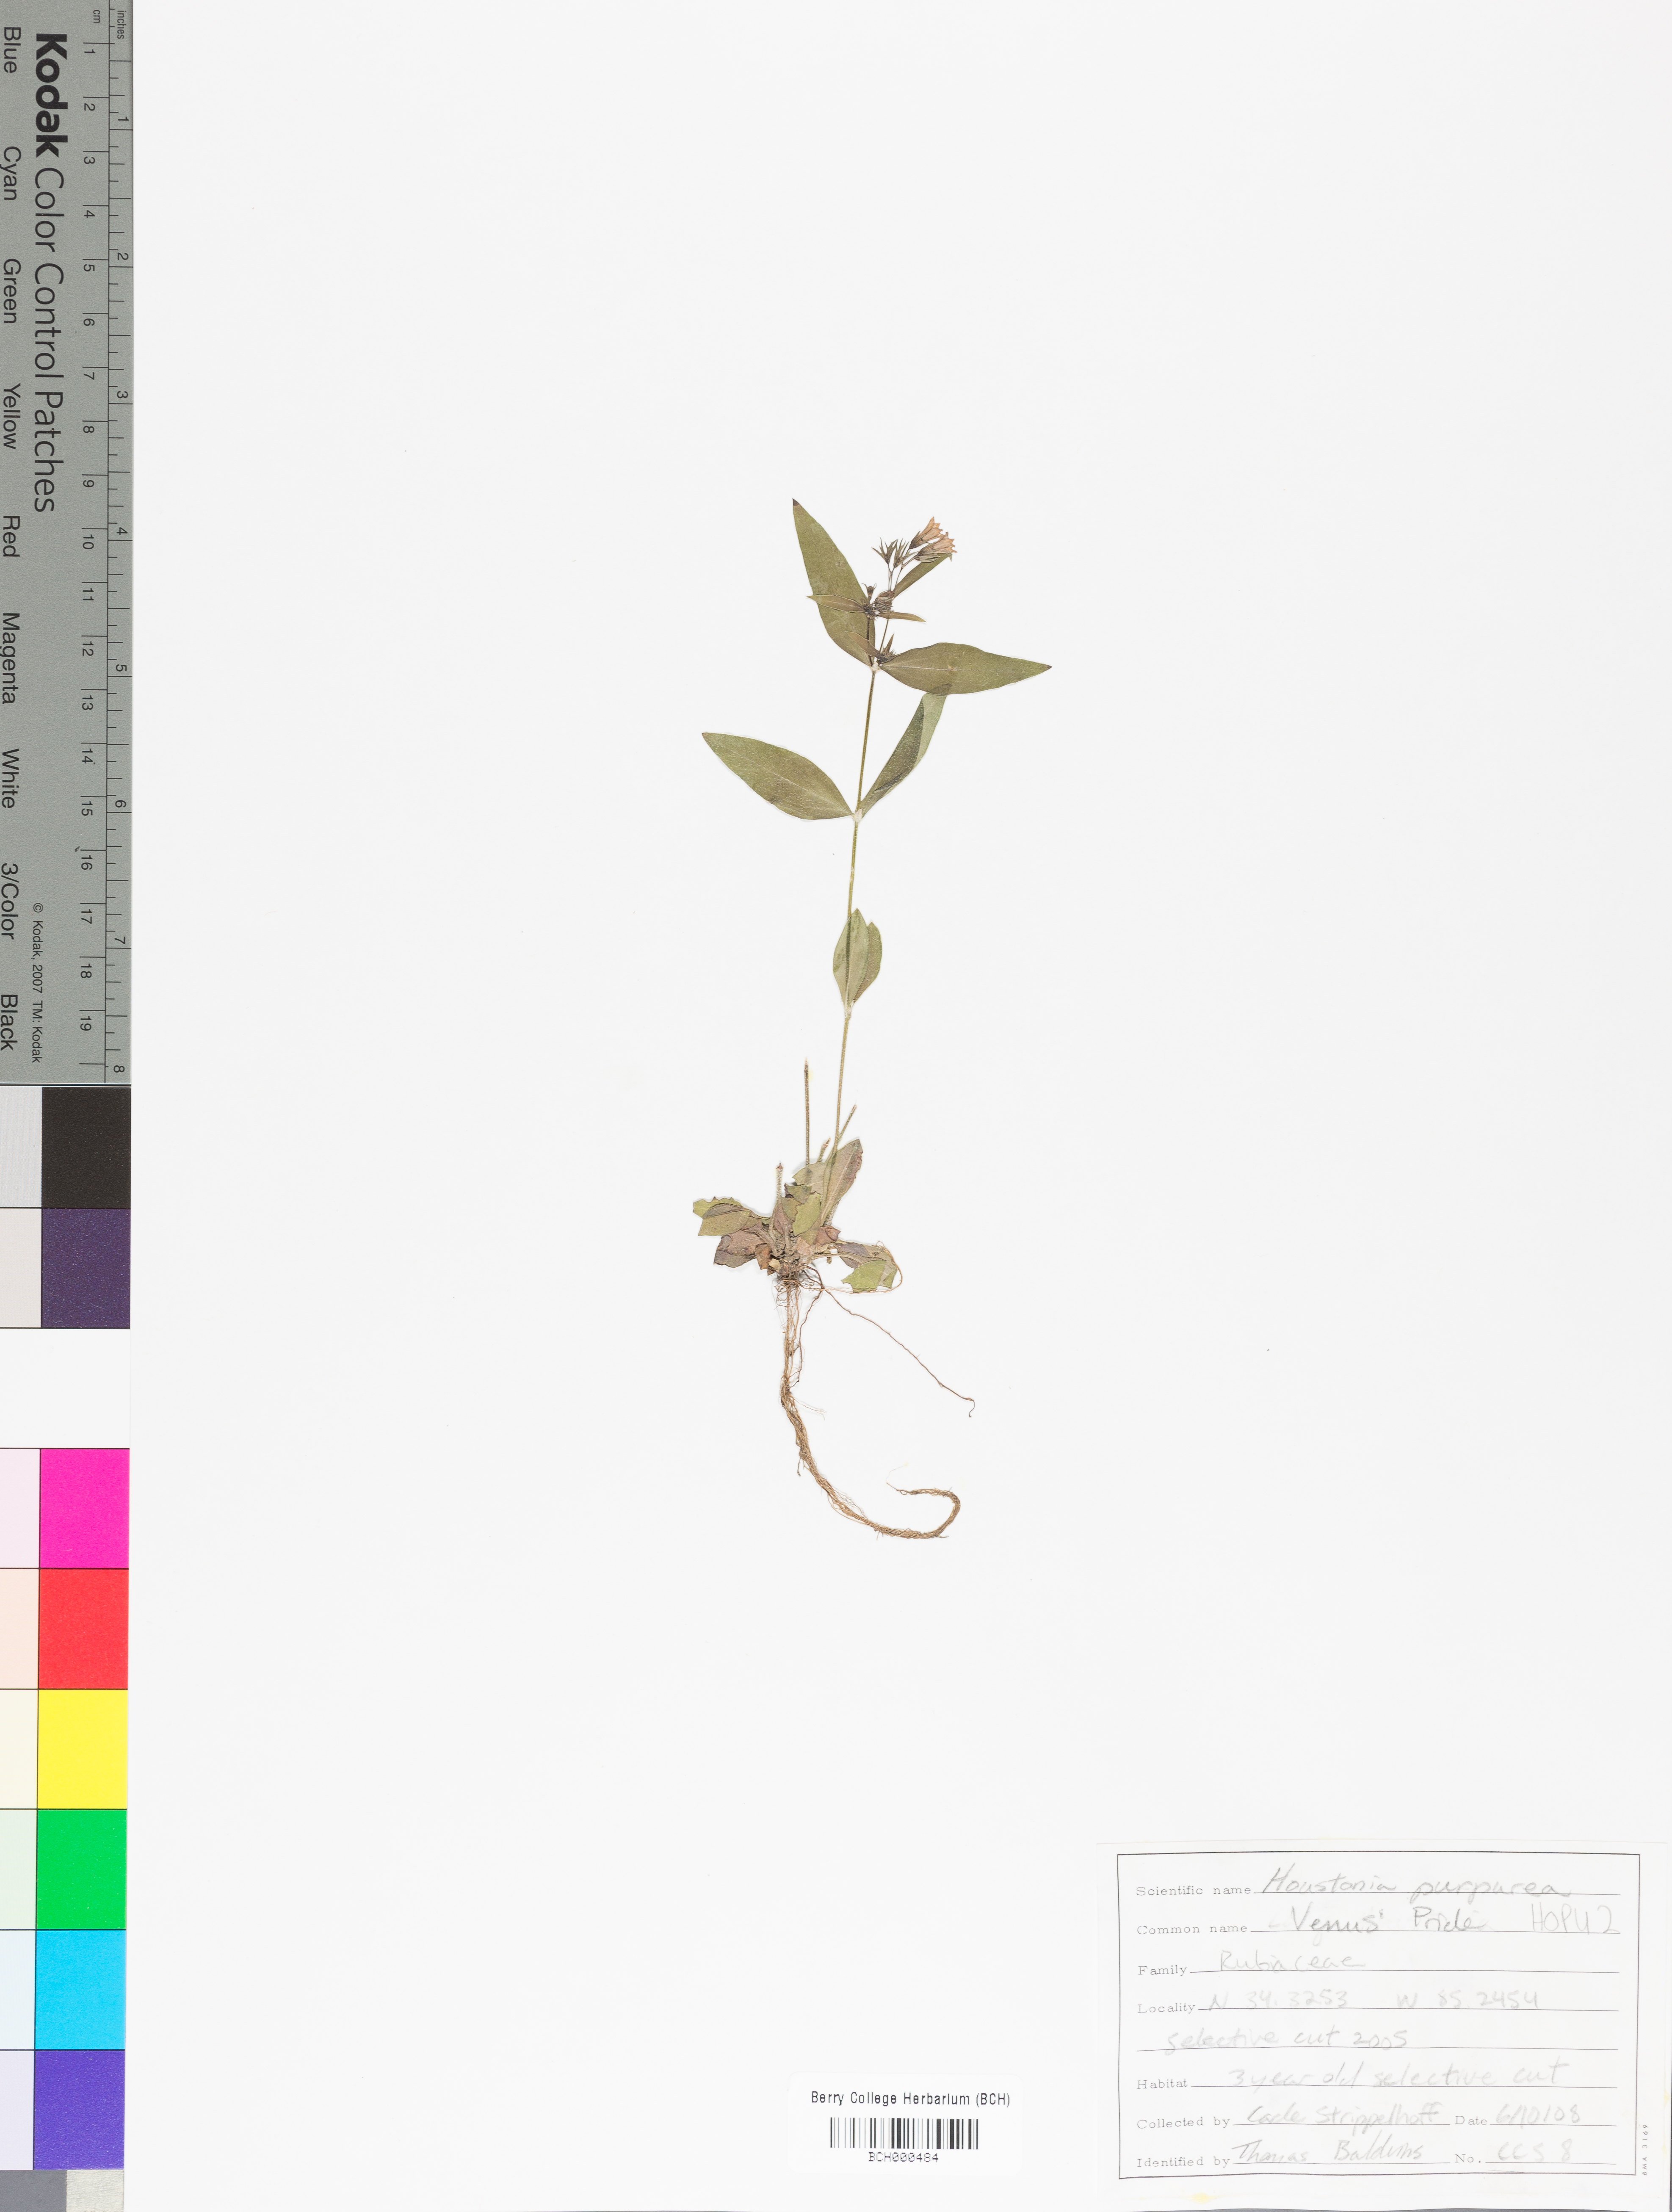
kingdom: Plantae
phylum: Tracheophyta
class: Magnoliopsida
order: Gentianales
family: Rubiaceae
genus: Houstonia
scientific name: Houstonia purpurea
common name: Summer bluet
